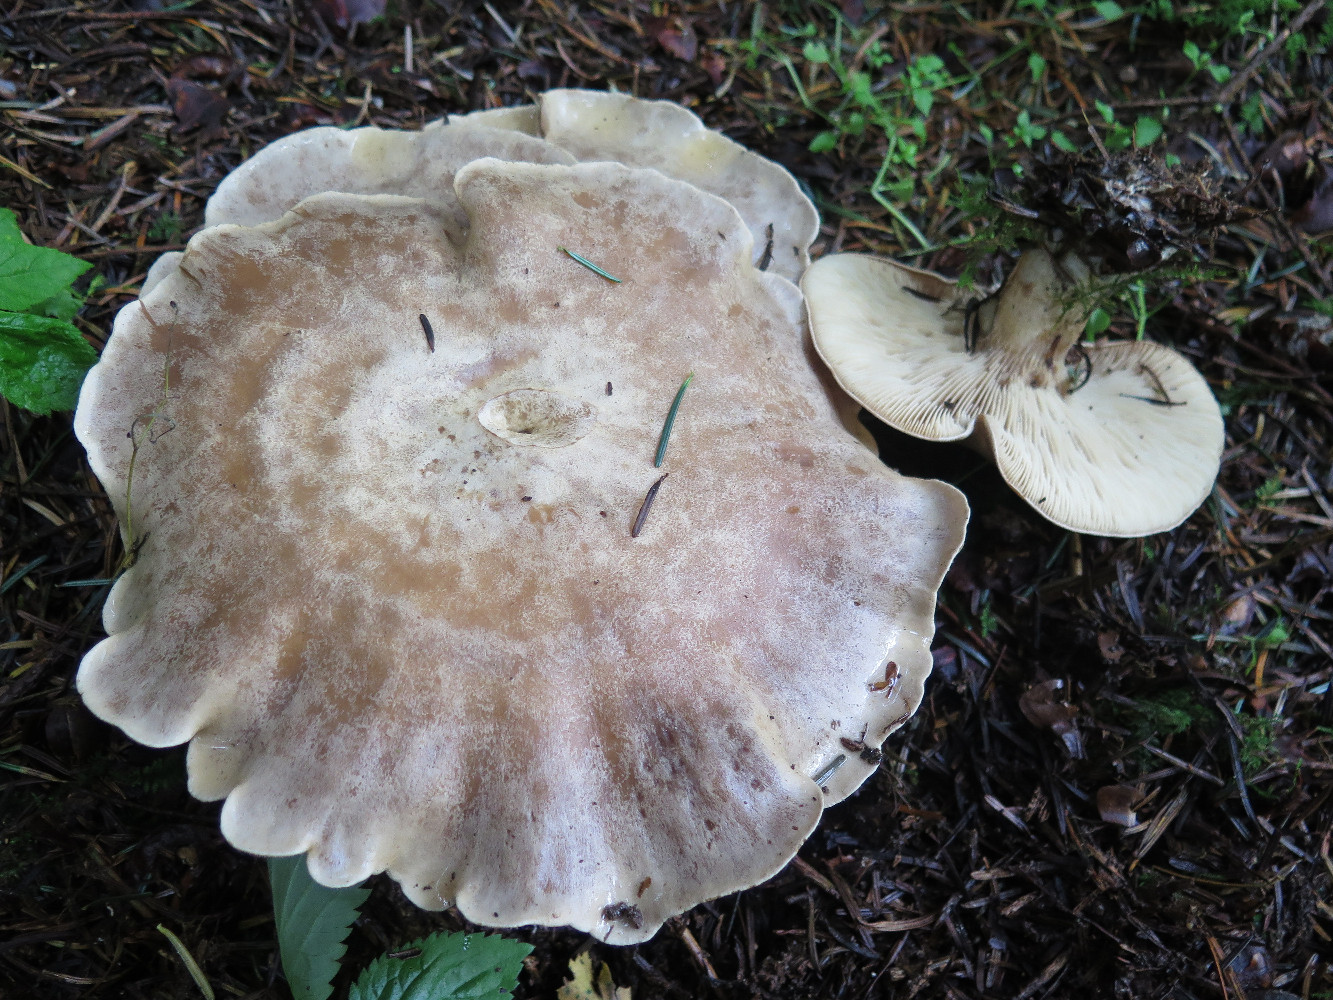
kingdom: Fungi
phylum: Basidiomycota
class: Agaricomycetes
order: Agaricales
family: Pseudoclitocybaceae
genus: Clitopaxillus
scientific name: Clitopaxillus fibulatus
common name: bestøvlet tragthat
